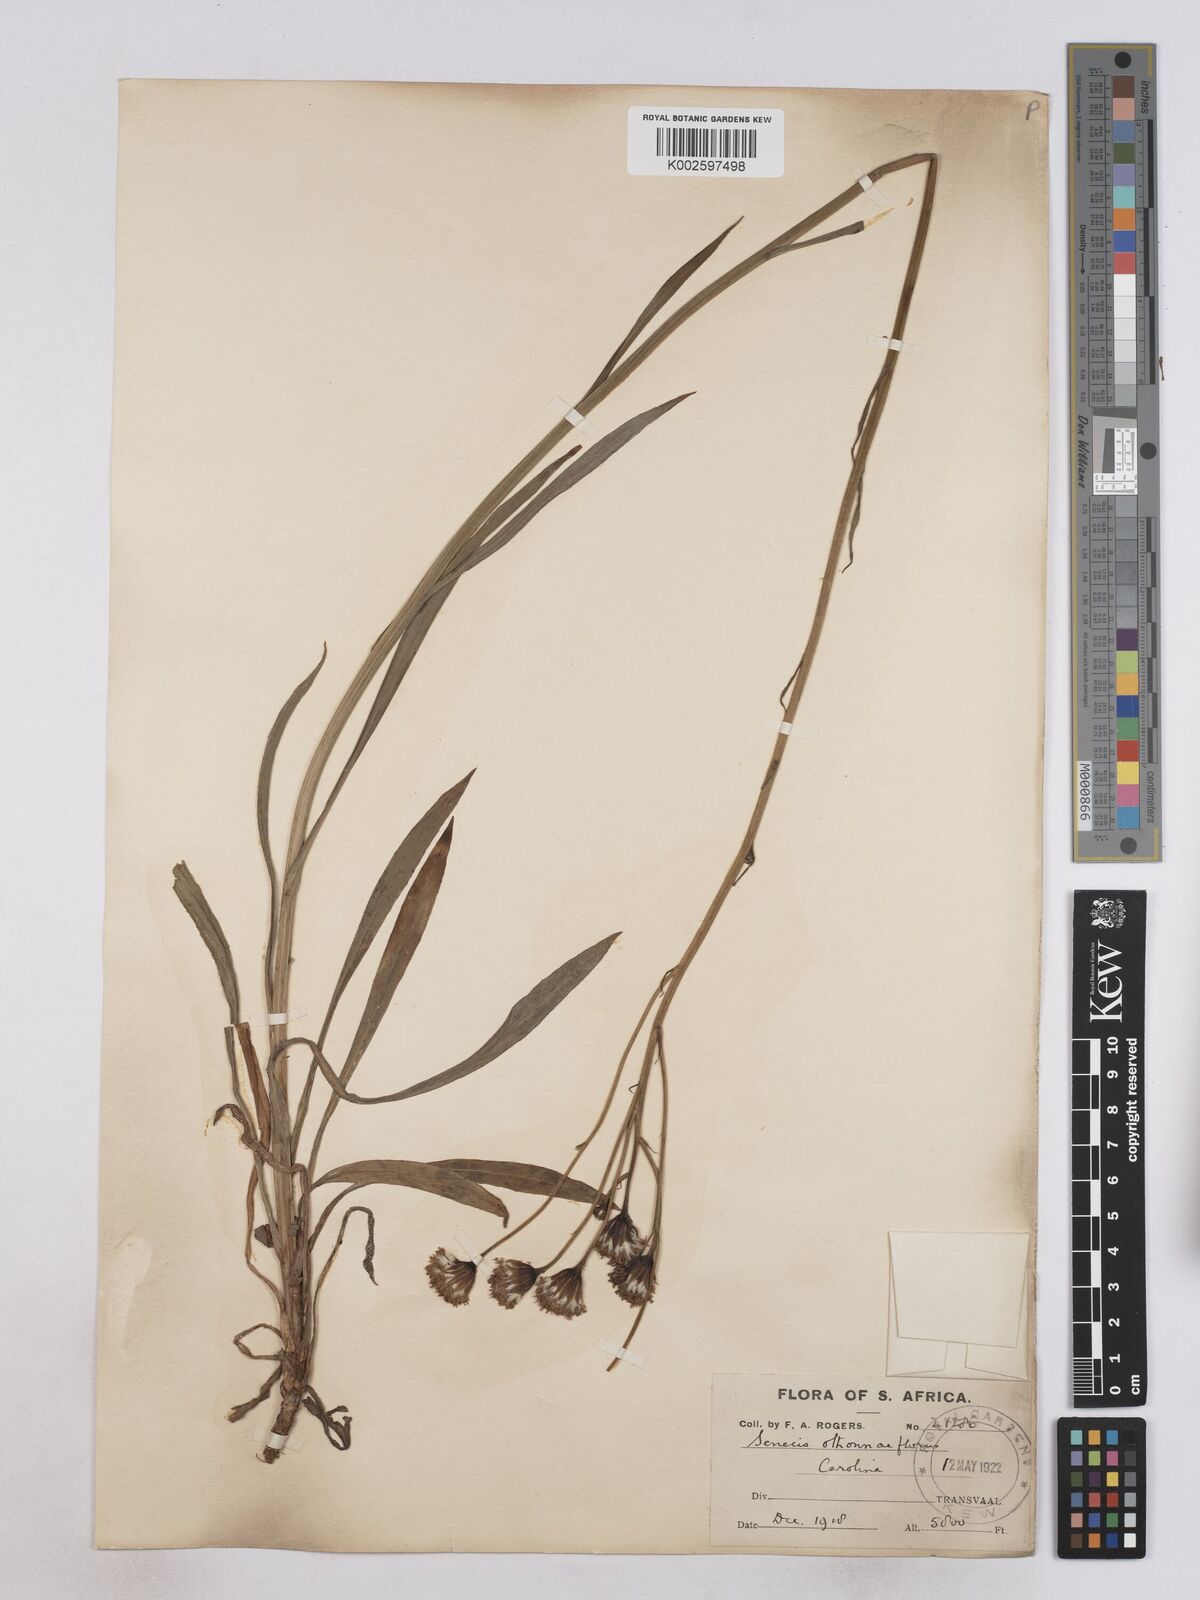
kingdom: Plantae
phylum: Tracheophyta
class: Magnoliopsida
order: Asterales
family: Asteraceae
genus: Senecio
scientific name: Senecio othonniflorus
